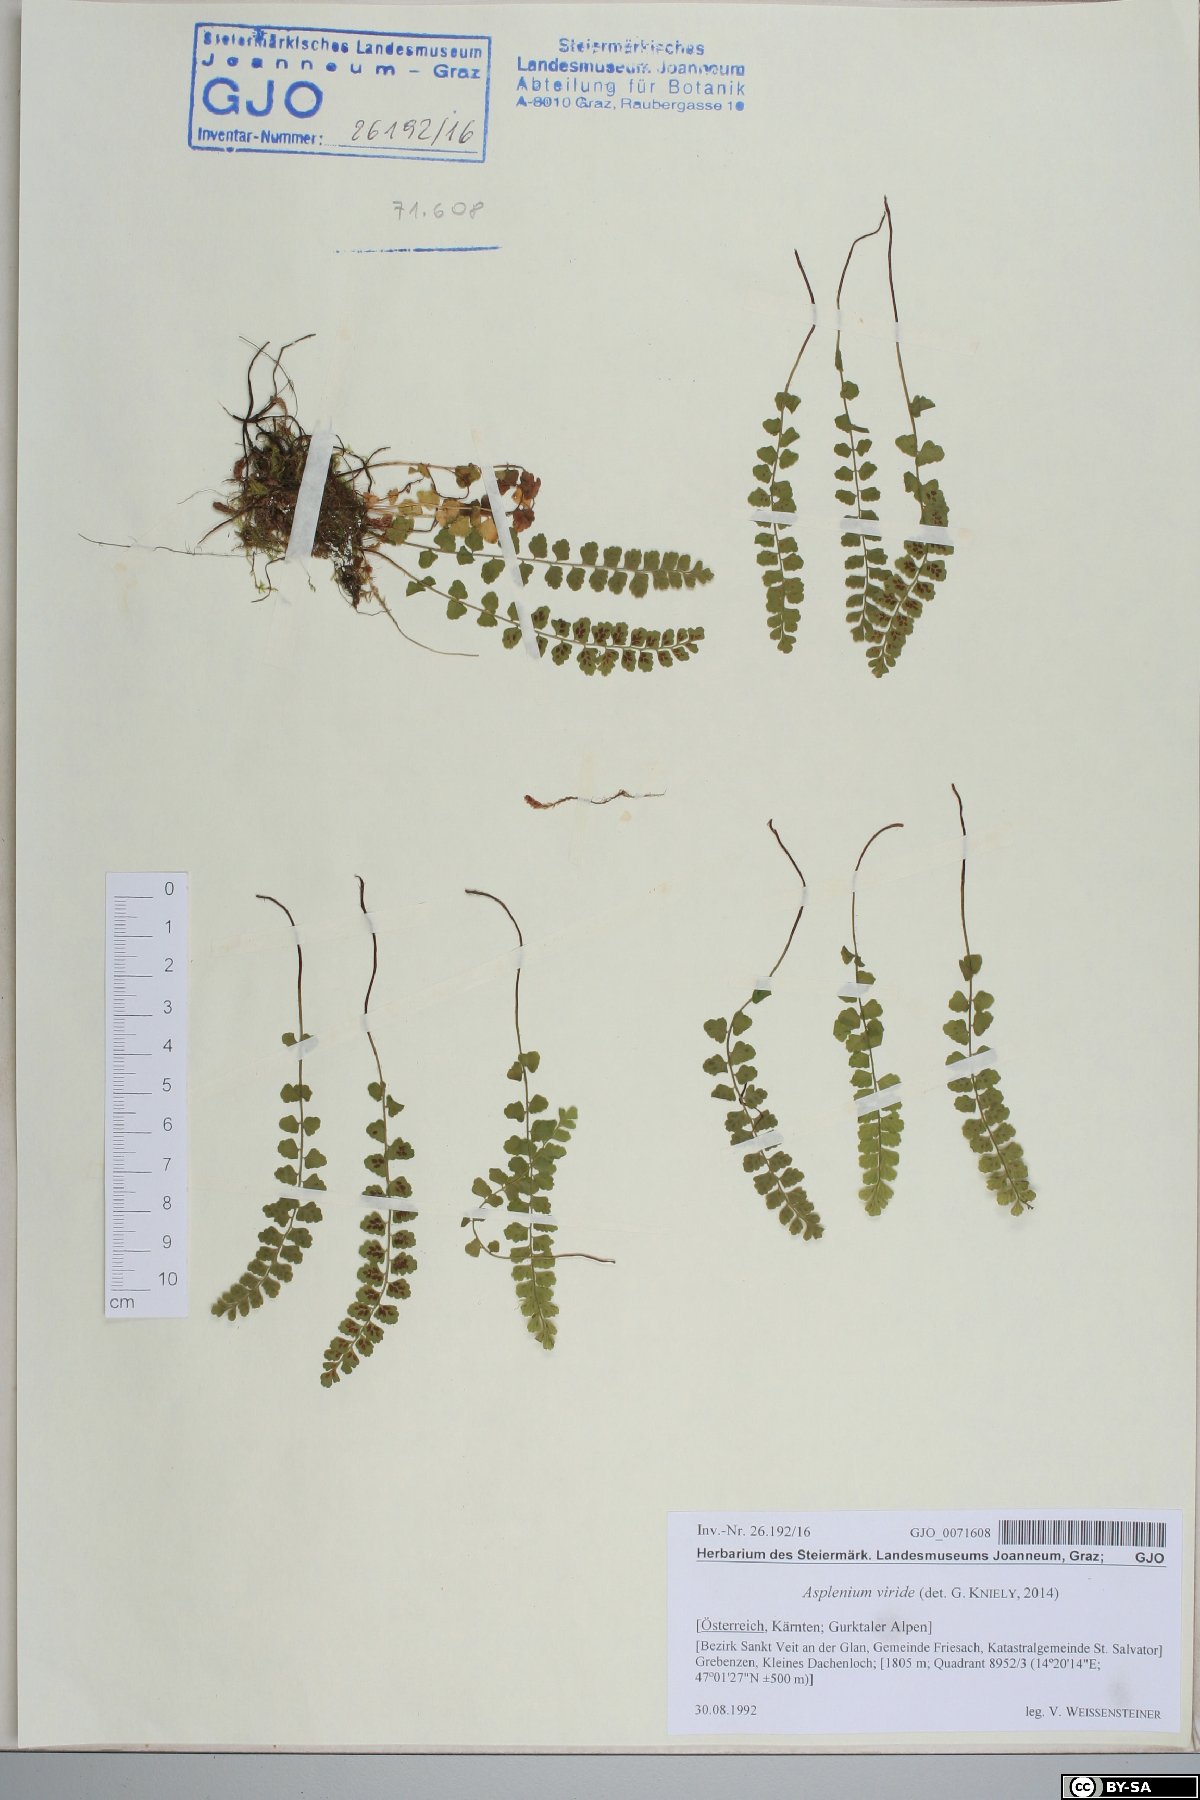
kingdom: Plantae
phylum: Tracheophyta
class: Polypodiopsida
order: Polypodiales
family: Aspleniaceae
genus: Asplenium
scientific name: Asplenium viride
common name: Green spleenwort
